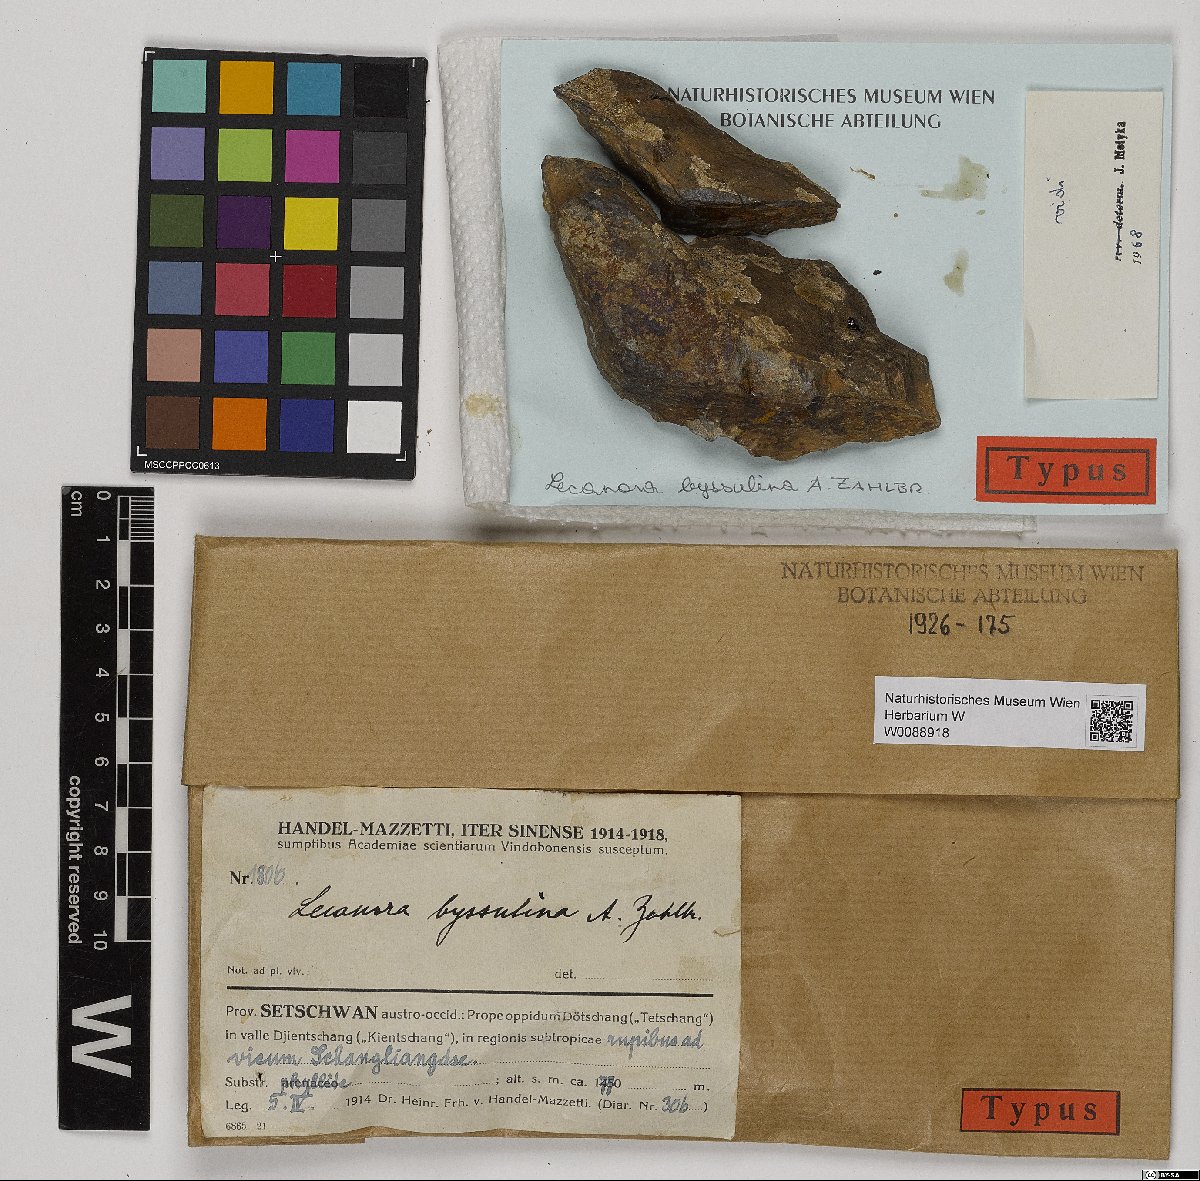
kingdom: Fungi
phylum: Ascomycota
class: Lecanoromycetes
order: Lecanorales
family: Lecanoraceae
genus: Lecanora
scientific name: Lecanora byssulina
